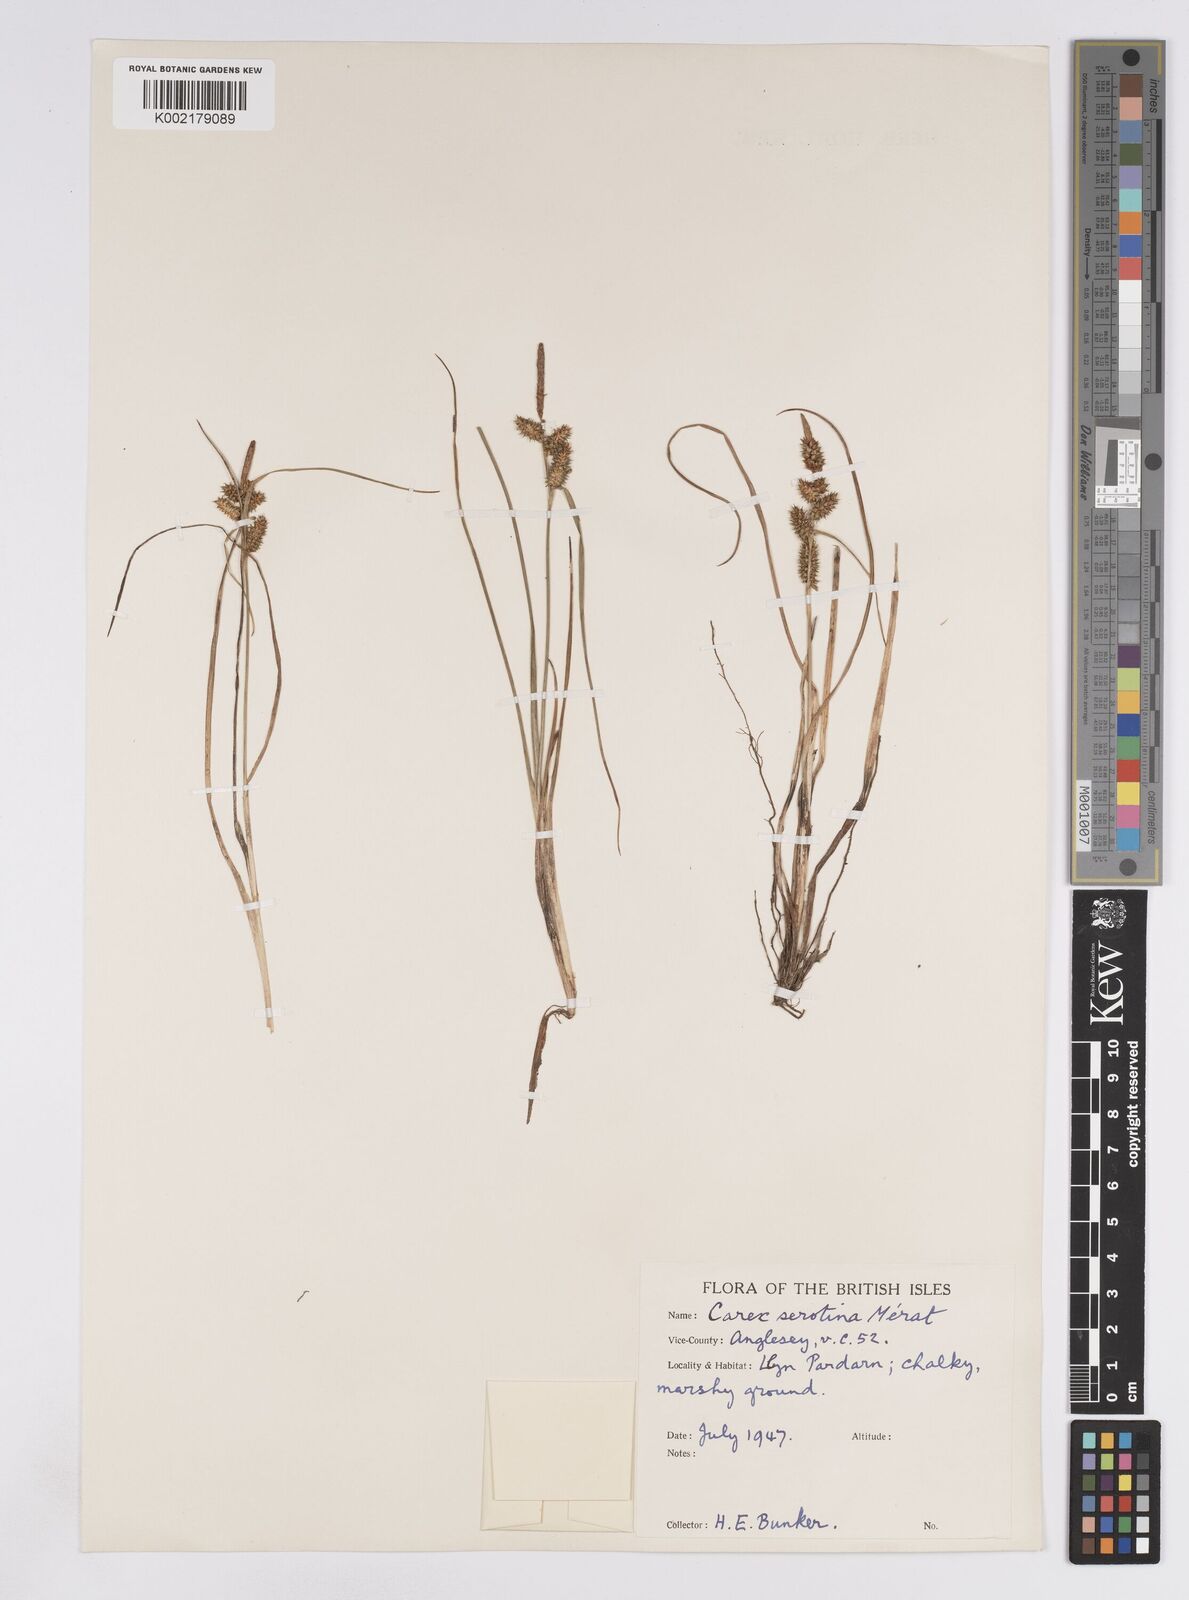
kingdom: Plantae
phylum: Tracheophyta
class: Liliopsida
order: Poales
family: Cyperaceae
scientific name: Cyperaceae
